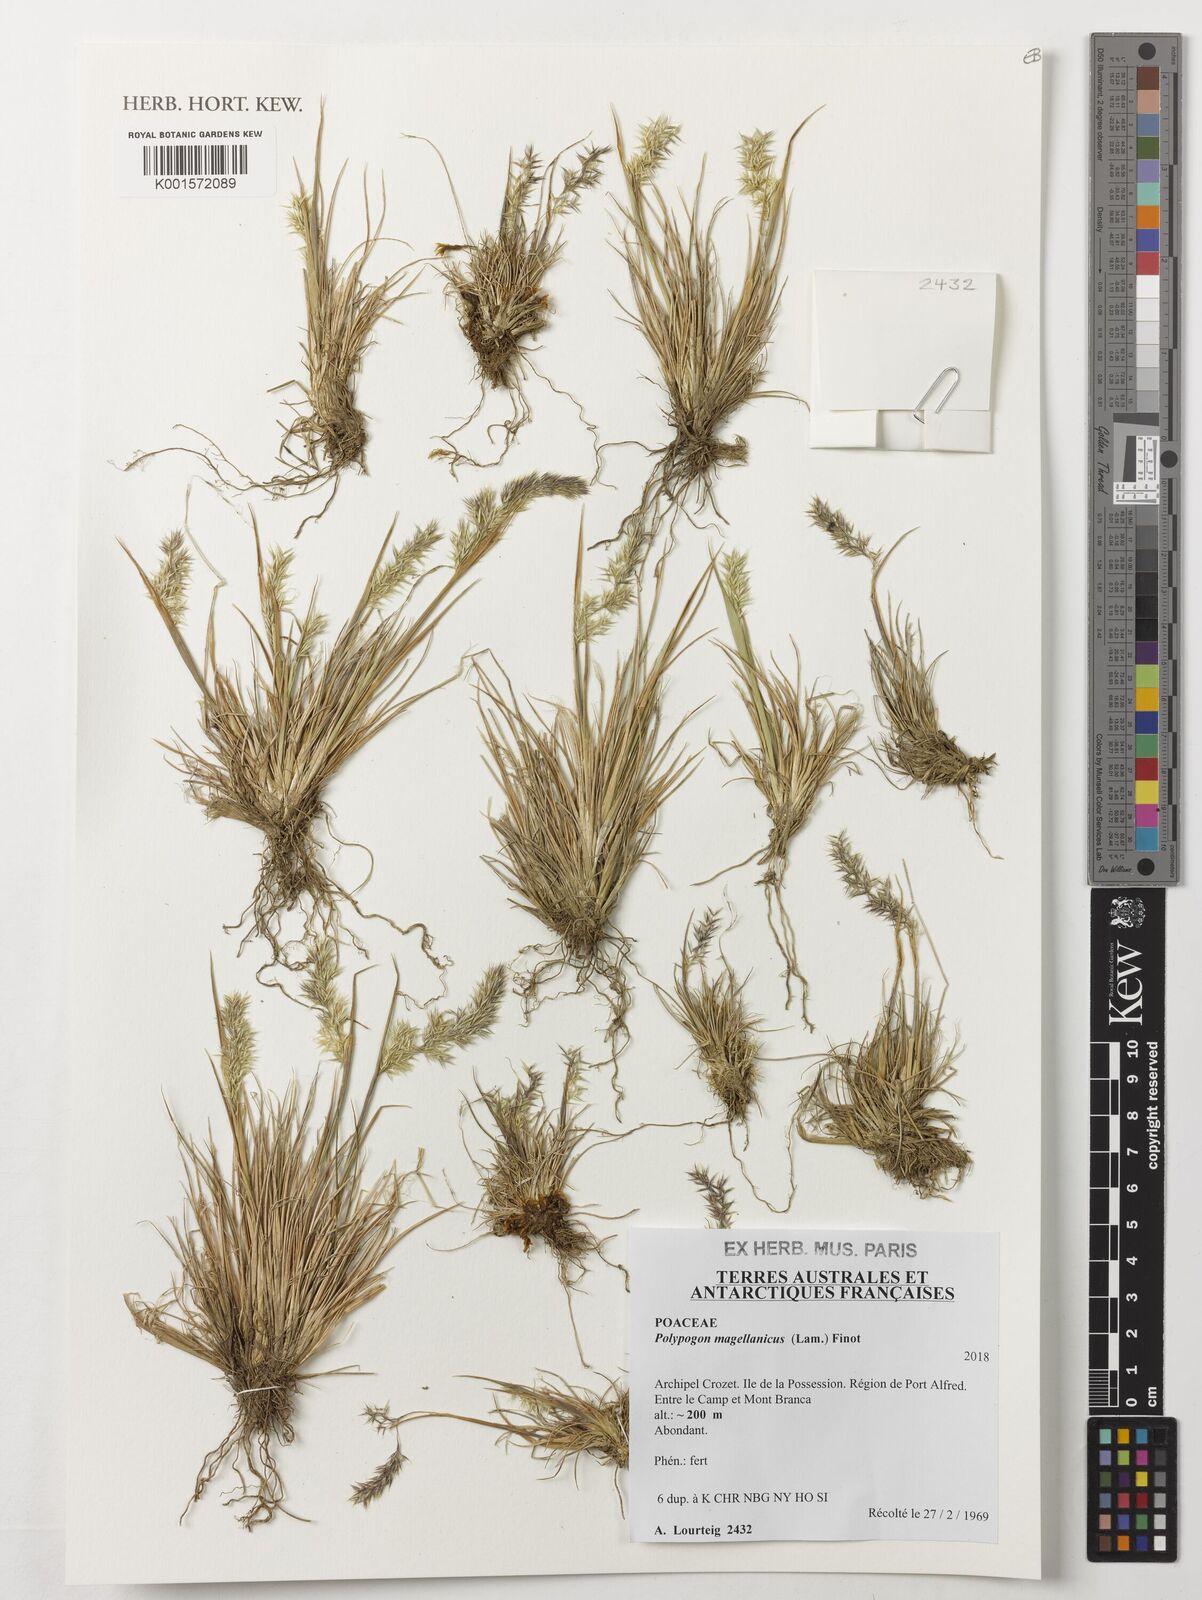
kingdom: Plantae
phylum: Tracheophyta
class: Liliopsida
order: Poales
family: Poaceae
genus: Polypogon
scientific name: Polypogon magellanicus
